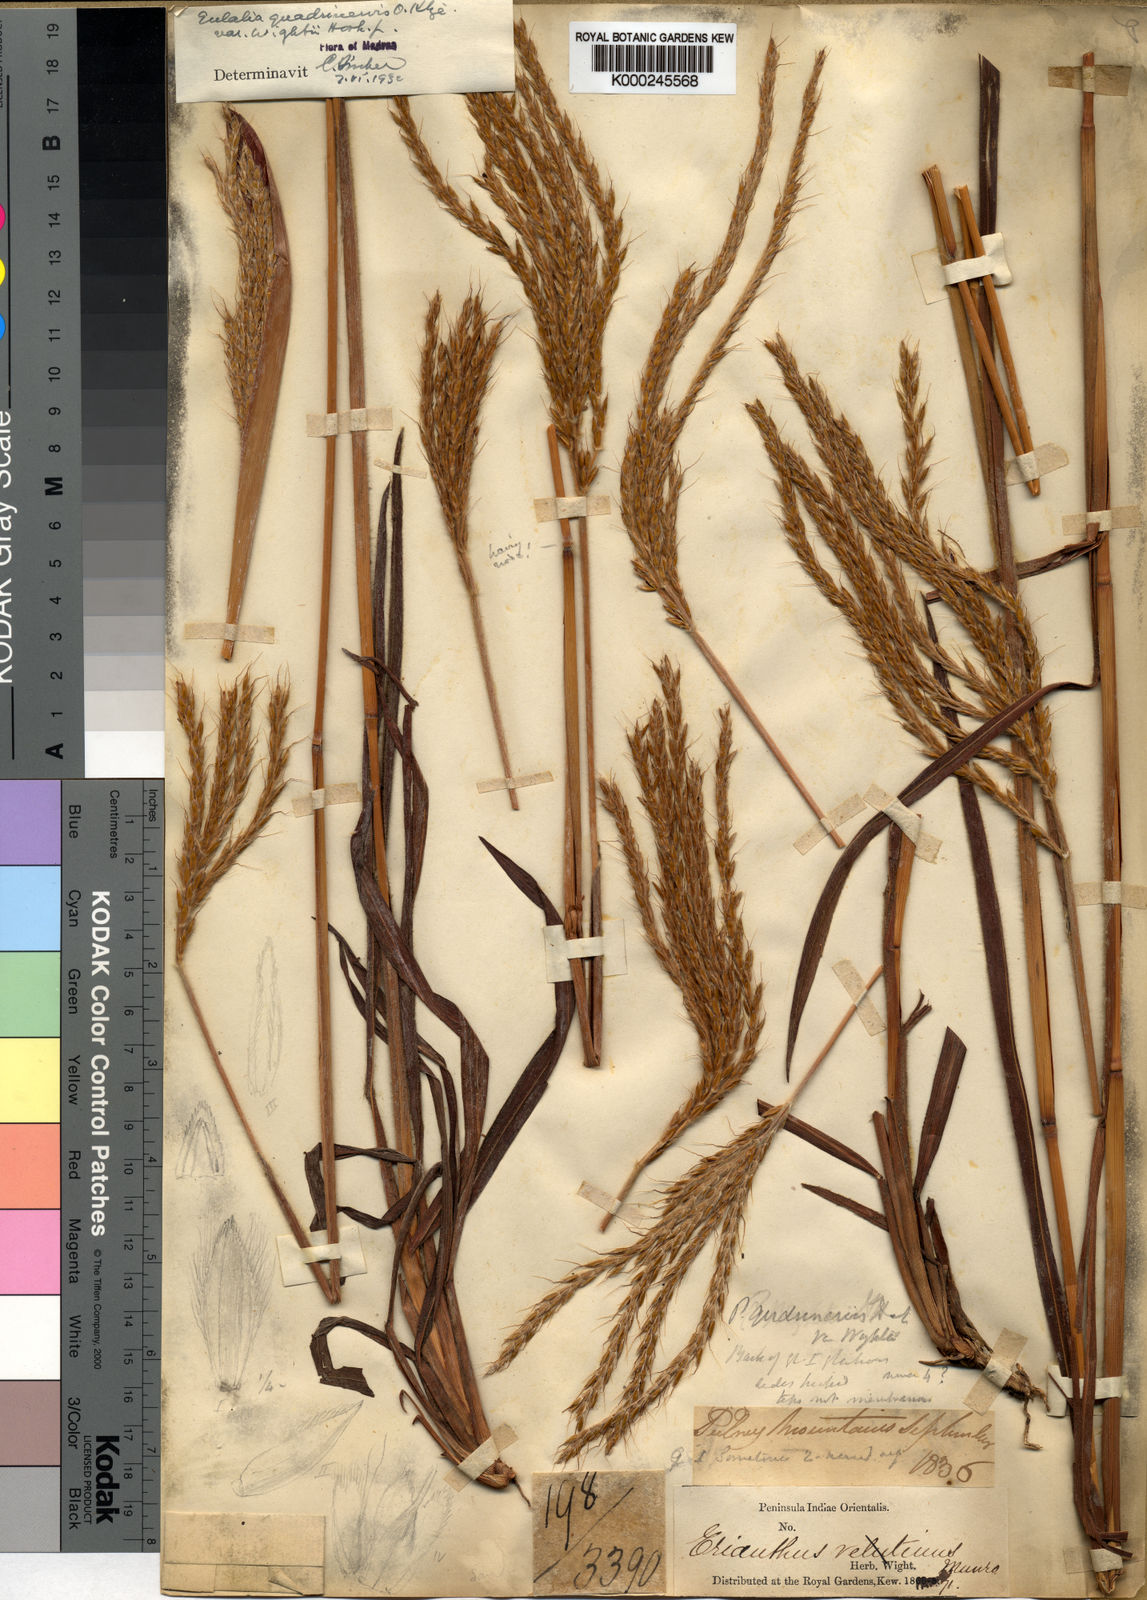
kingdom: Plantae
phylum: Tracheophyta
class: Liliopsida
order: Poales
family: Poaceae
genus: Eulalia
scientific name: Eulalia villosa
